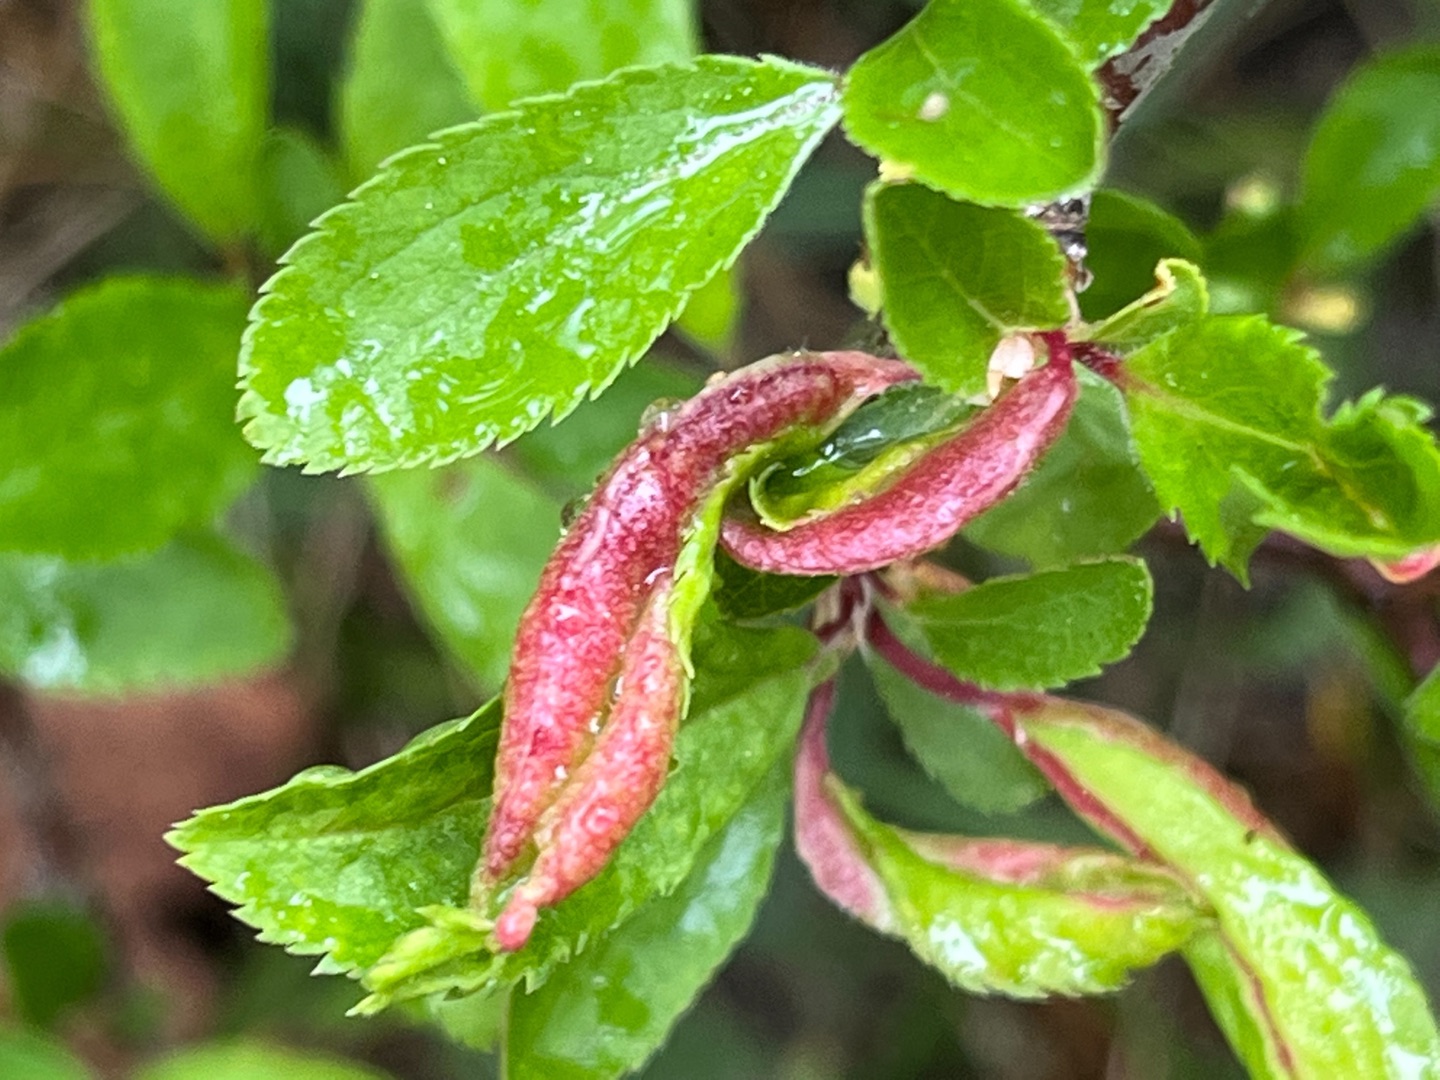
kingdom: Animalia
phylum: Arthropoda
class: Insecta
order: Diptera
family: Cecidomyiidae
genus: Putoniella
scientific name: Putoniella pruni
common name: Slåenvulstgalmyg
